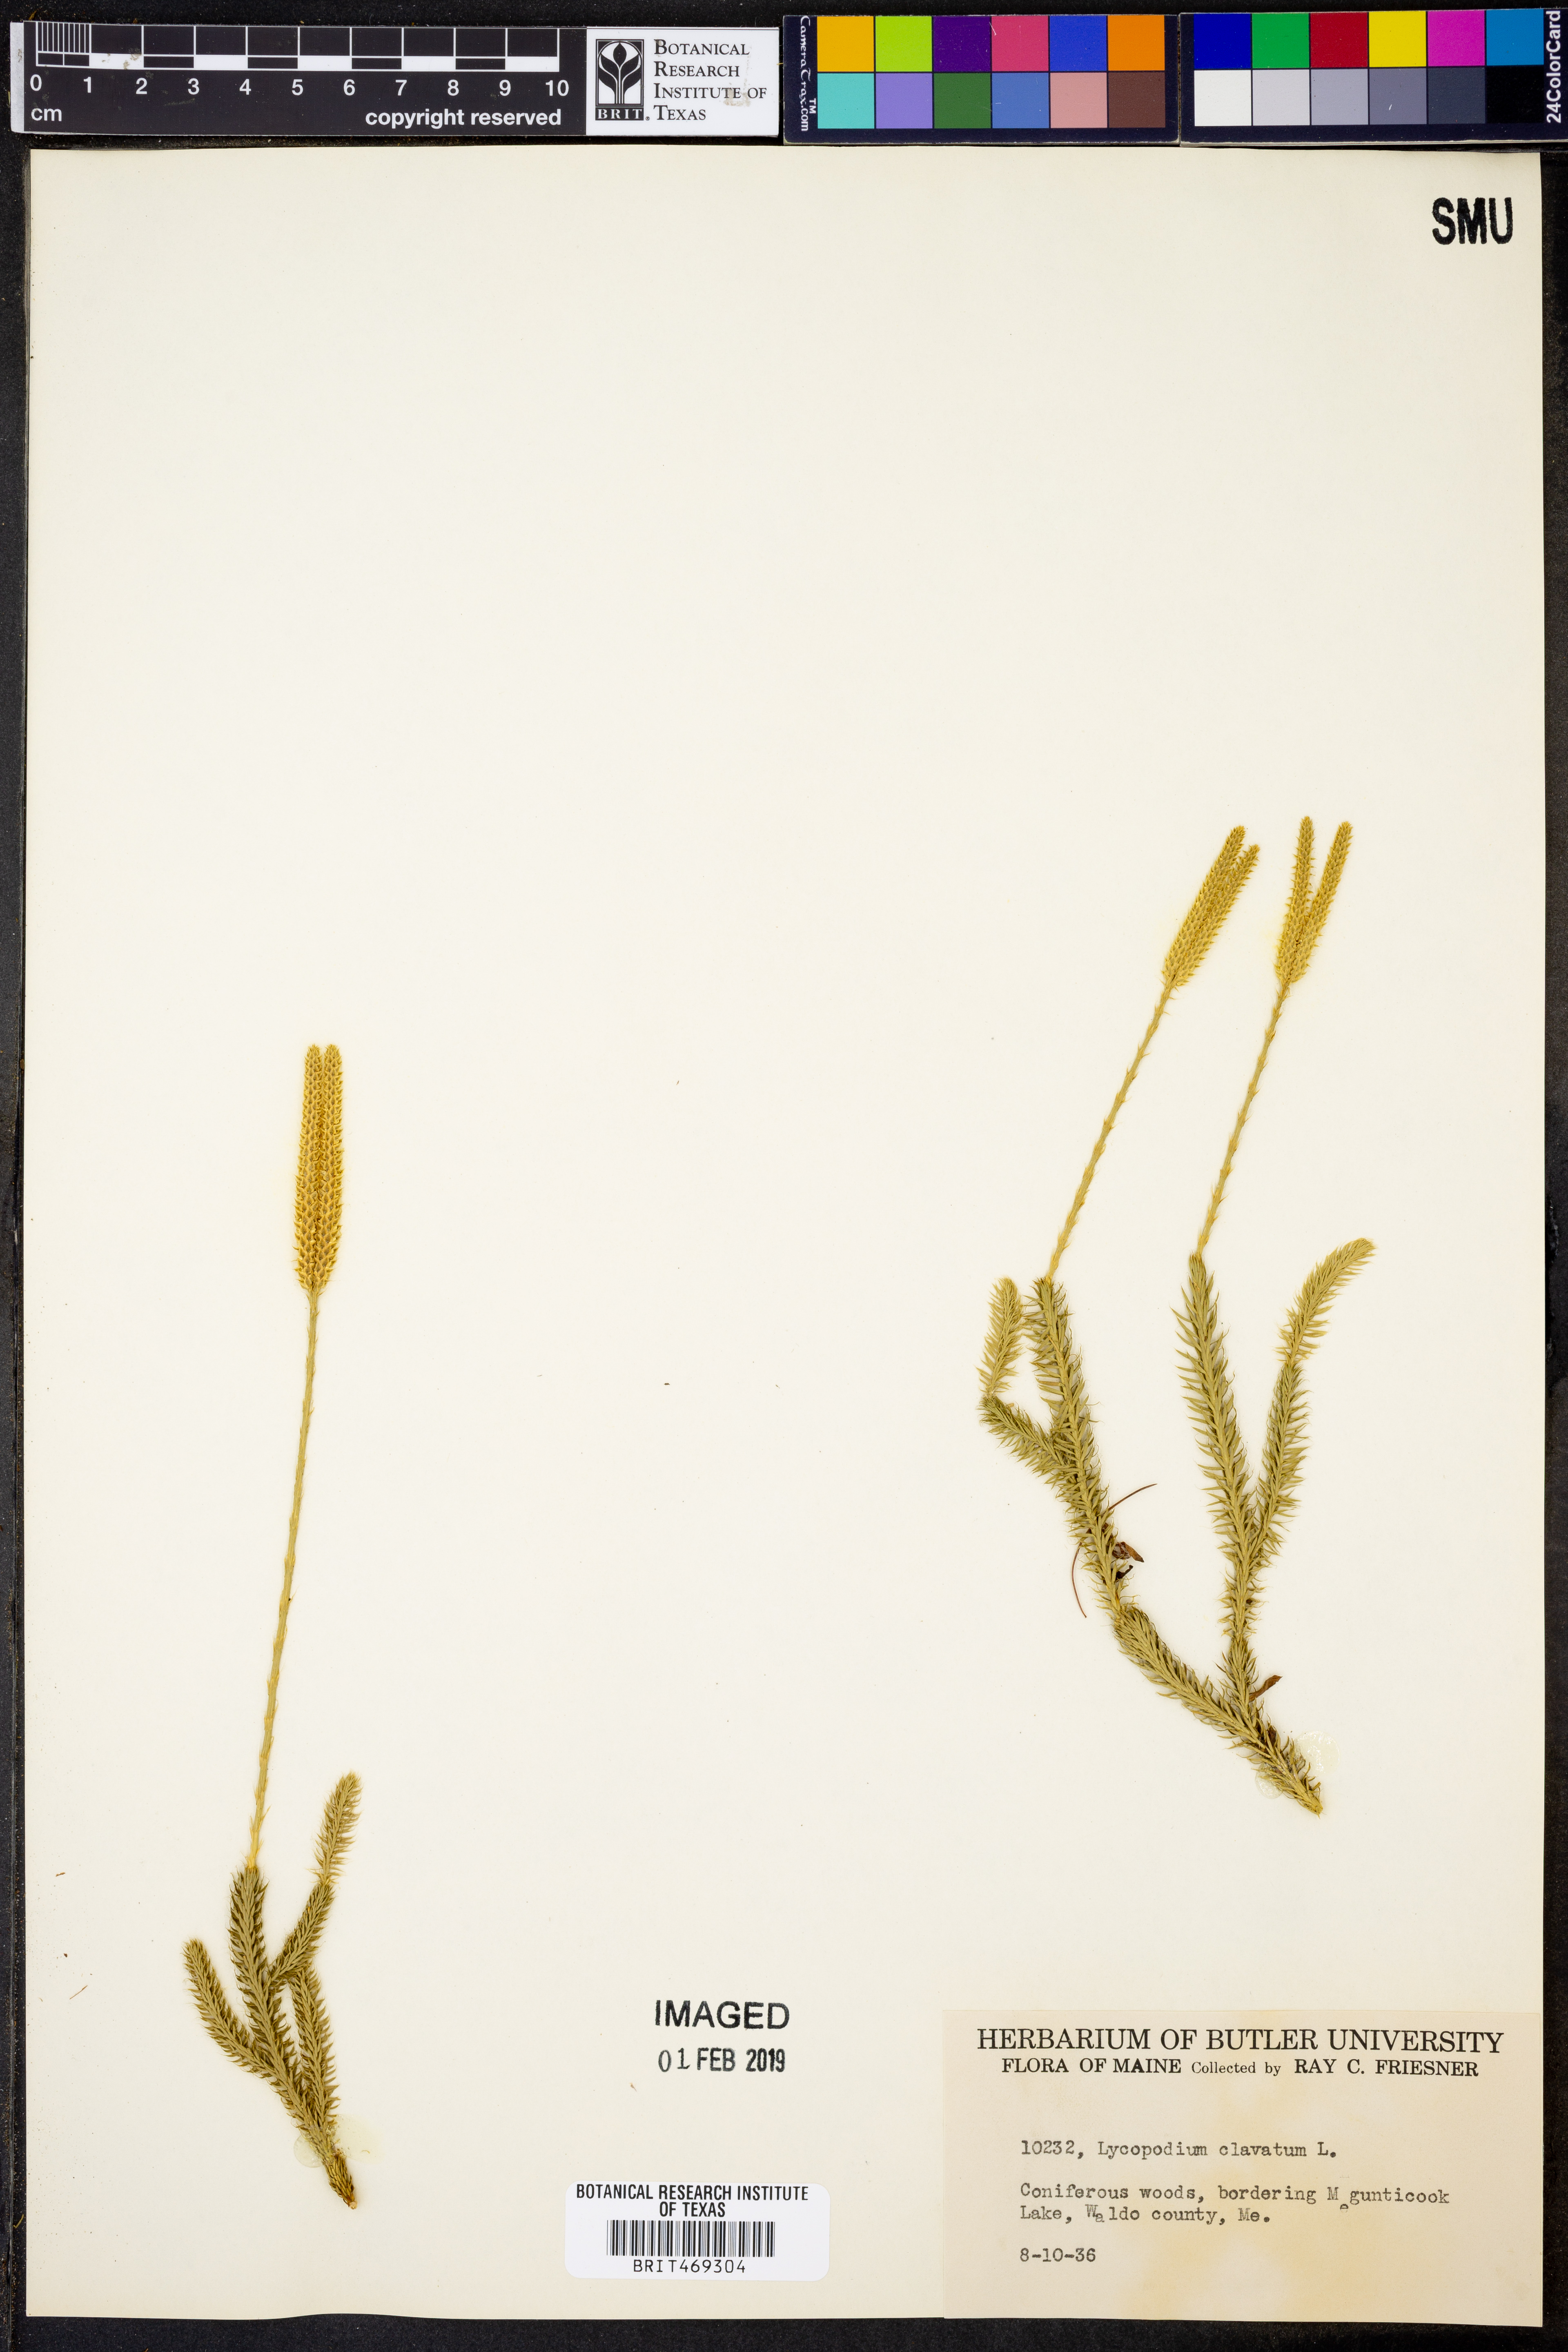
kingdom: Plantae
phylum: Tracheophyta
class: Lycopodiopsida
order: Lycopodiales
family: Lycopodiaceae
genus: Lycopodium
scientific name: Lycopodium clavatum
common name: Stag's-horn clubmoss
